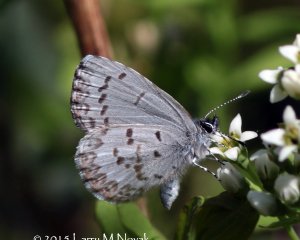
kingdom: Animalia
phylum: Arthropoda
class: Insecta
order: Lepidoptera
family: Lycaenidae
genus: Celastrina
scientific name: Celastrina lucia
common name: Northern Spring Azure
